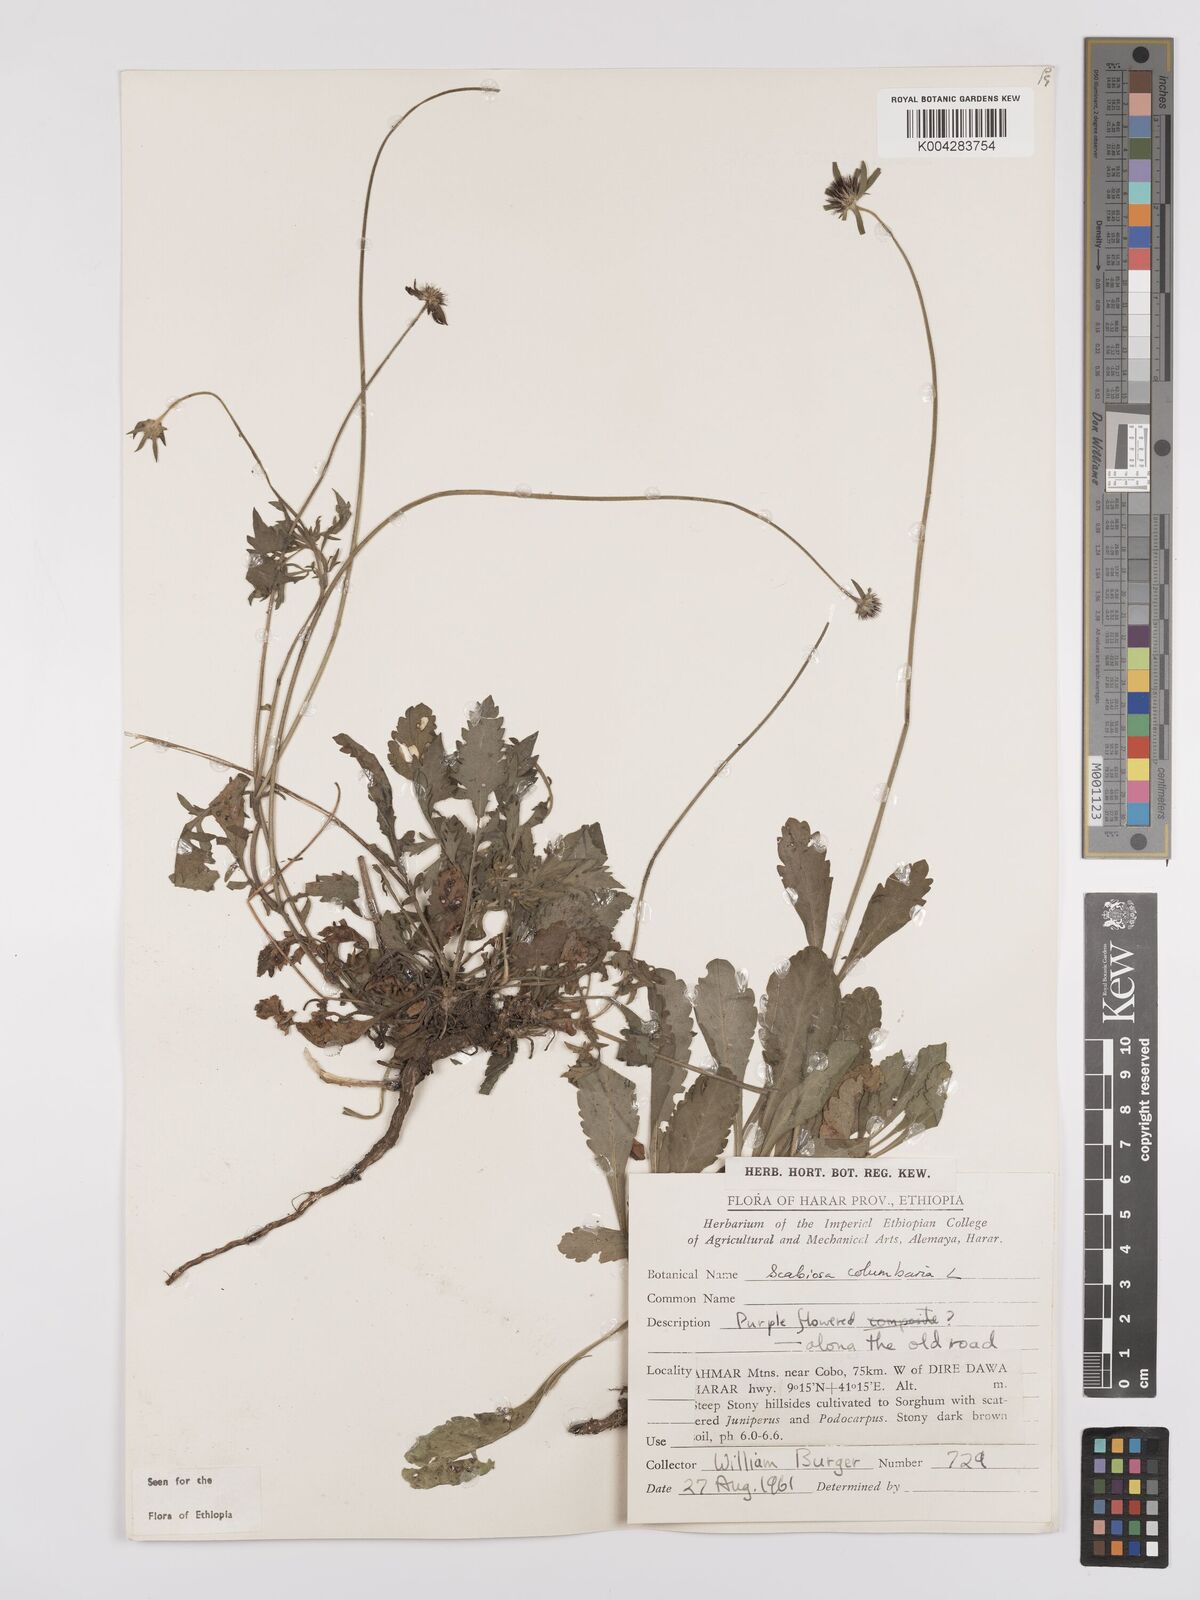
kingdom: Plantae
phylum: Tracheophyta
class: Magnoliopsida
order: Dipsacales
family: Caprifoliaceae
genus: Scabiosa
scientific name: Scabiosa columbaria
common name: Small scabious
